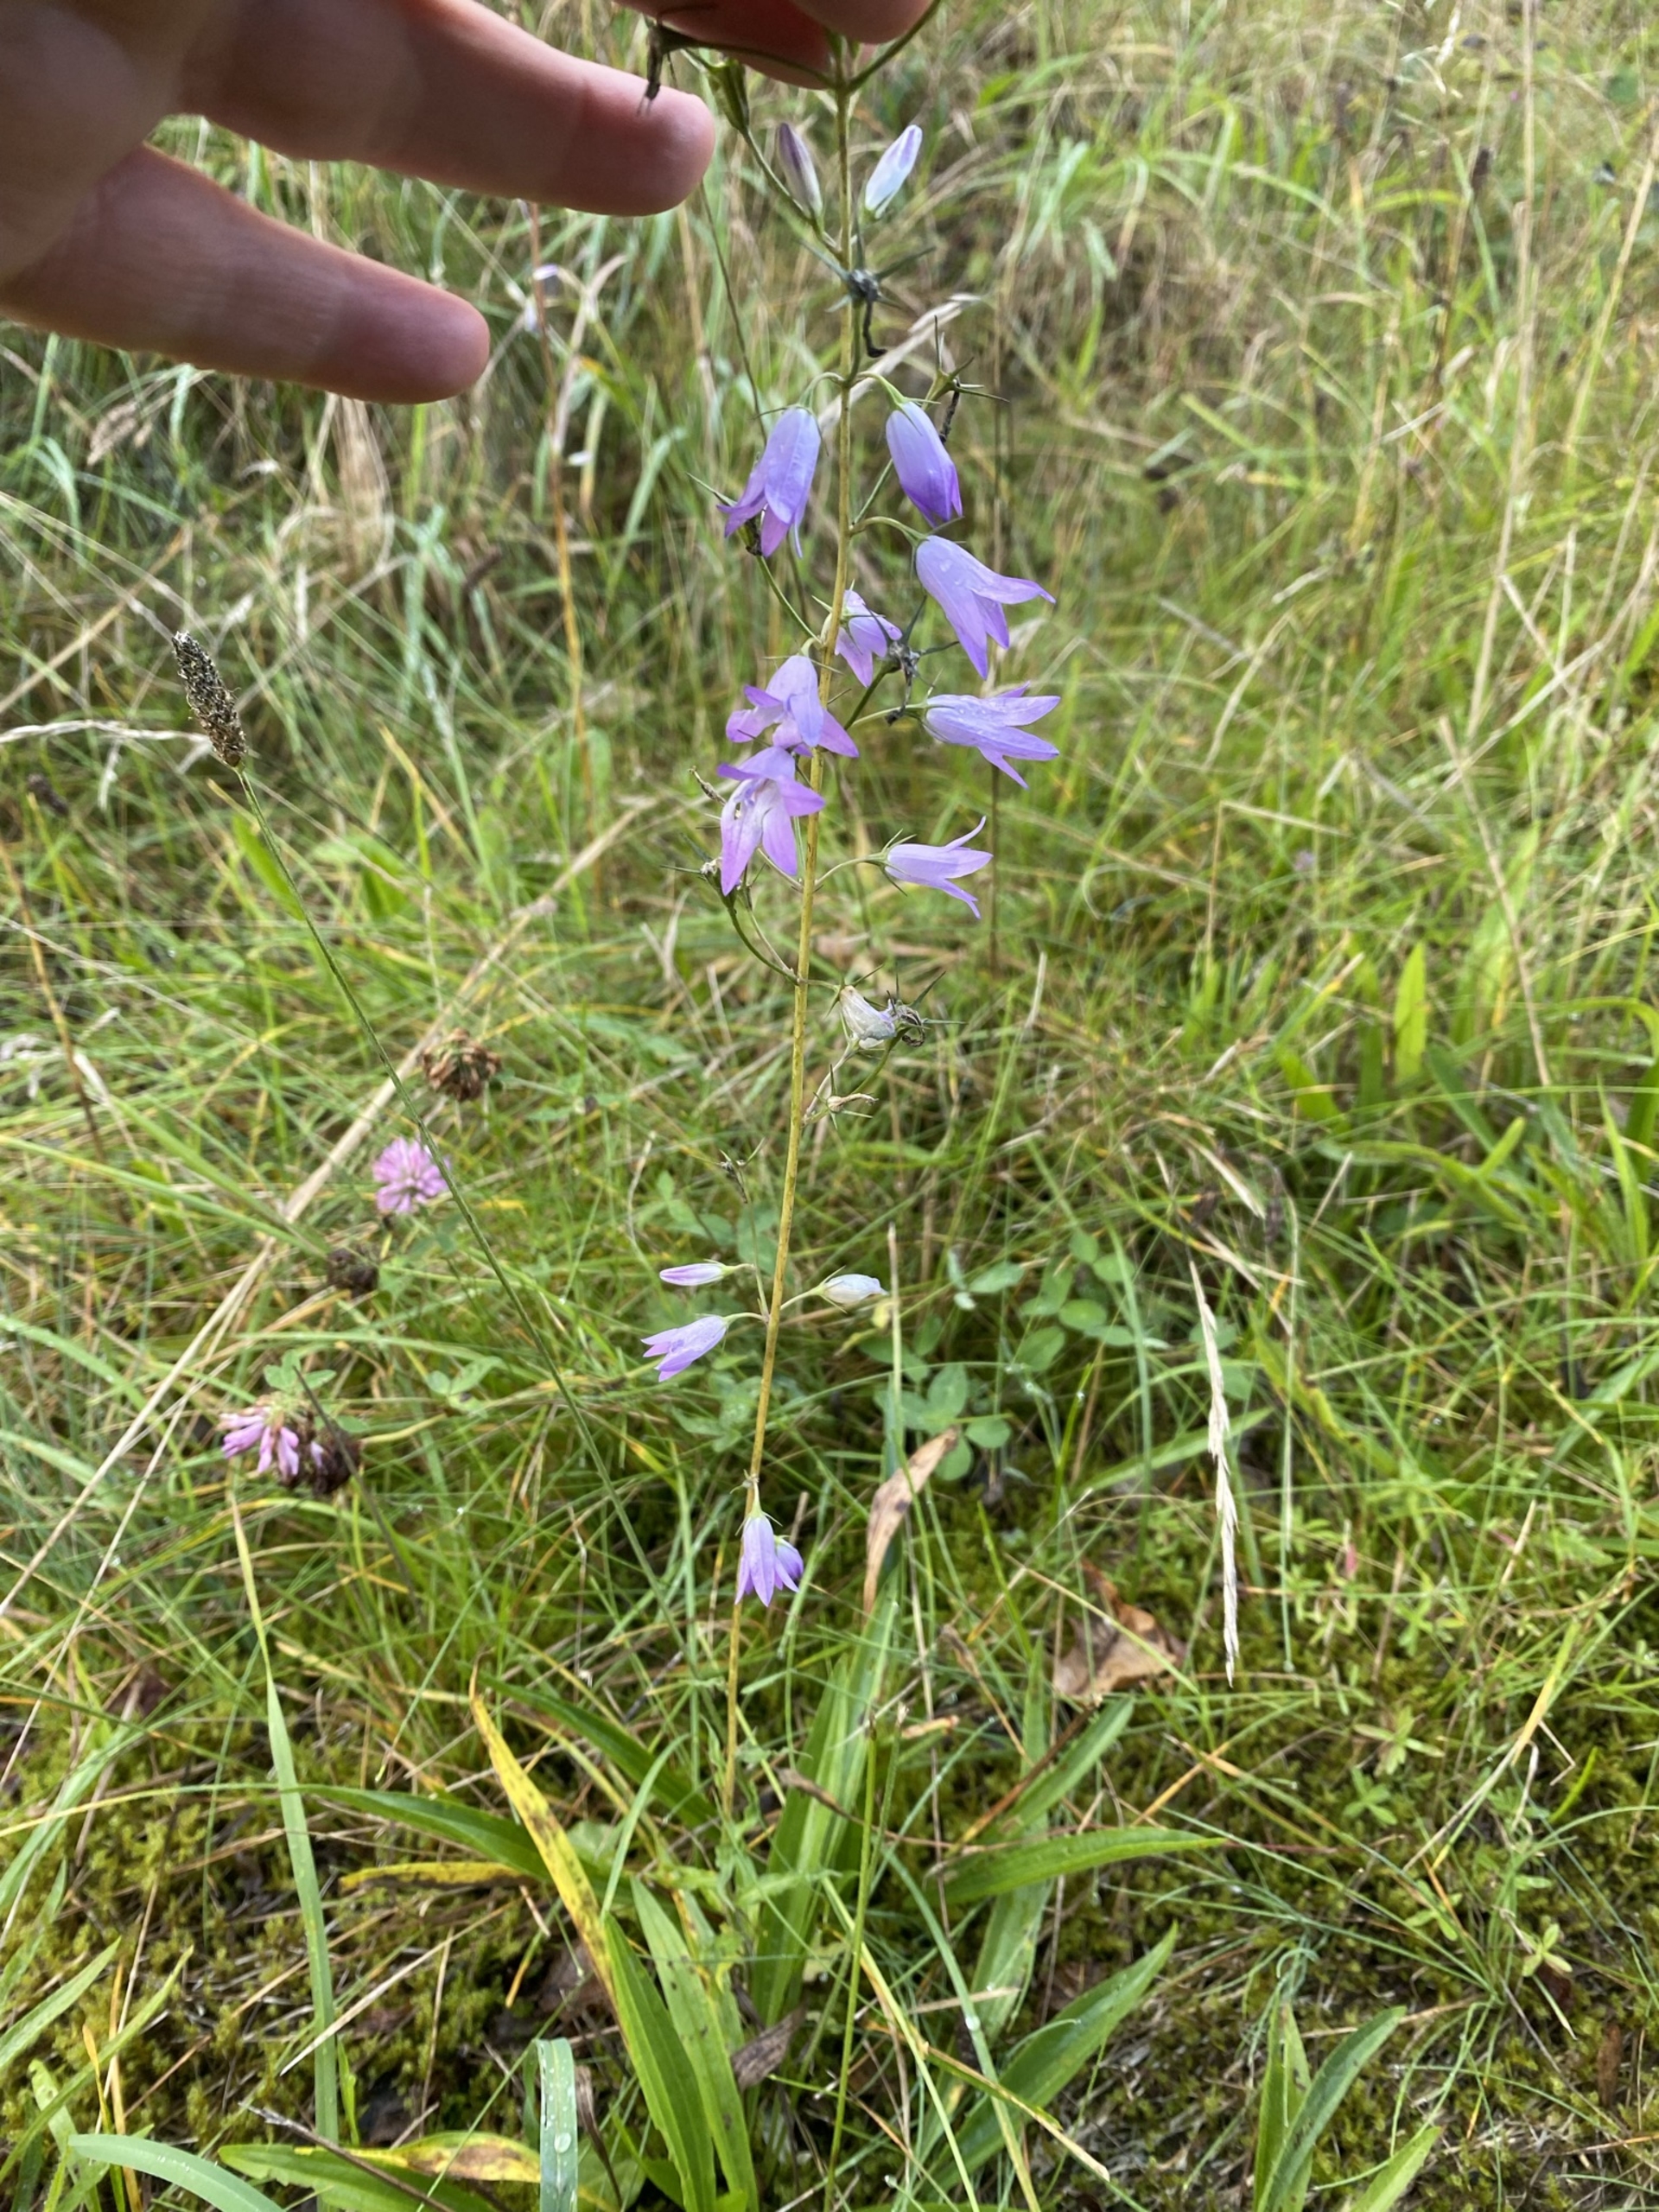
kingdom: Plantae
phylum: Tracheophyta
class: Magnoliopsida
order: Asterales
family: Campanulaceae
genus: Campanula
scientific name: Campanula rapunculus
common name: Rapunsel-klokke
